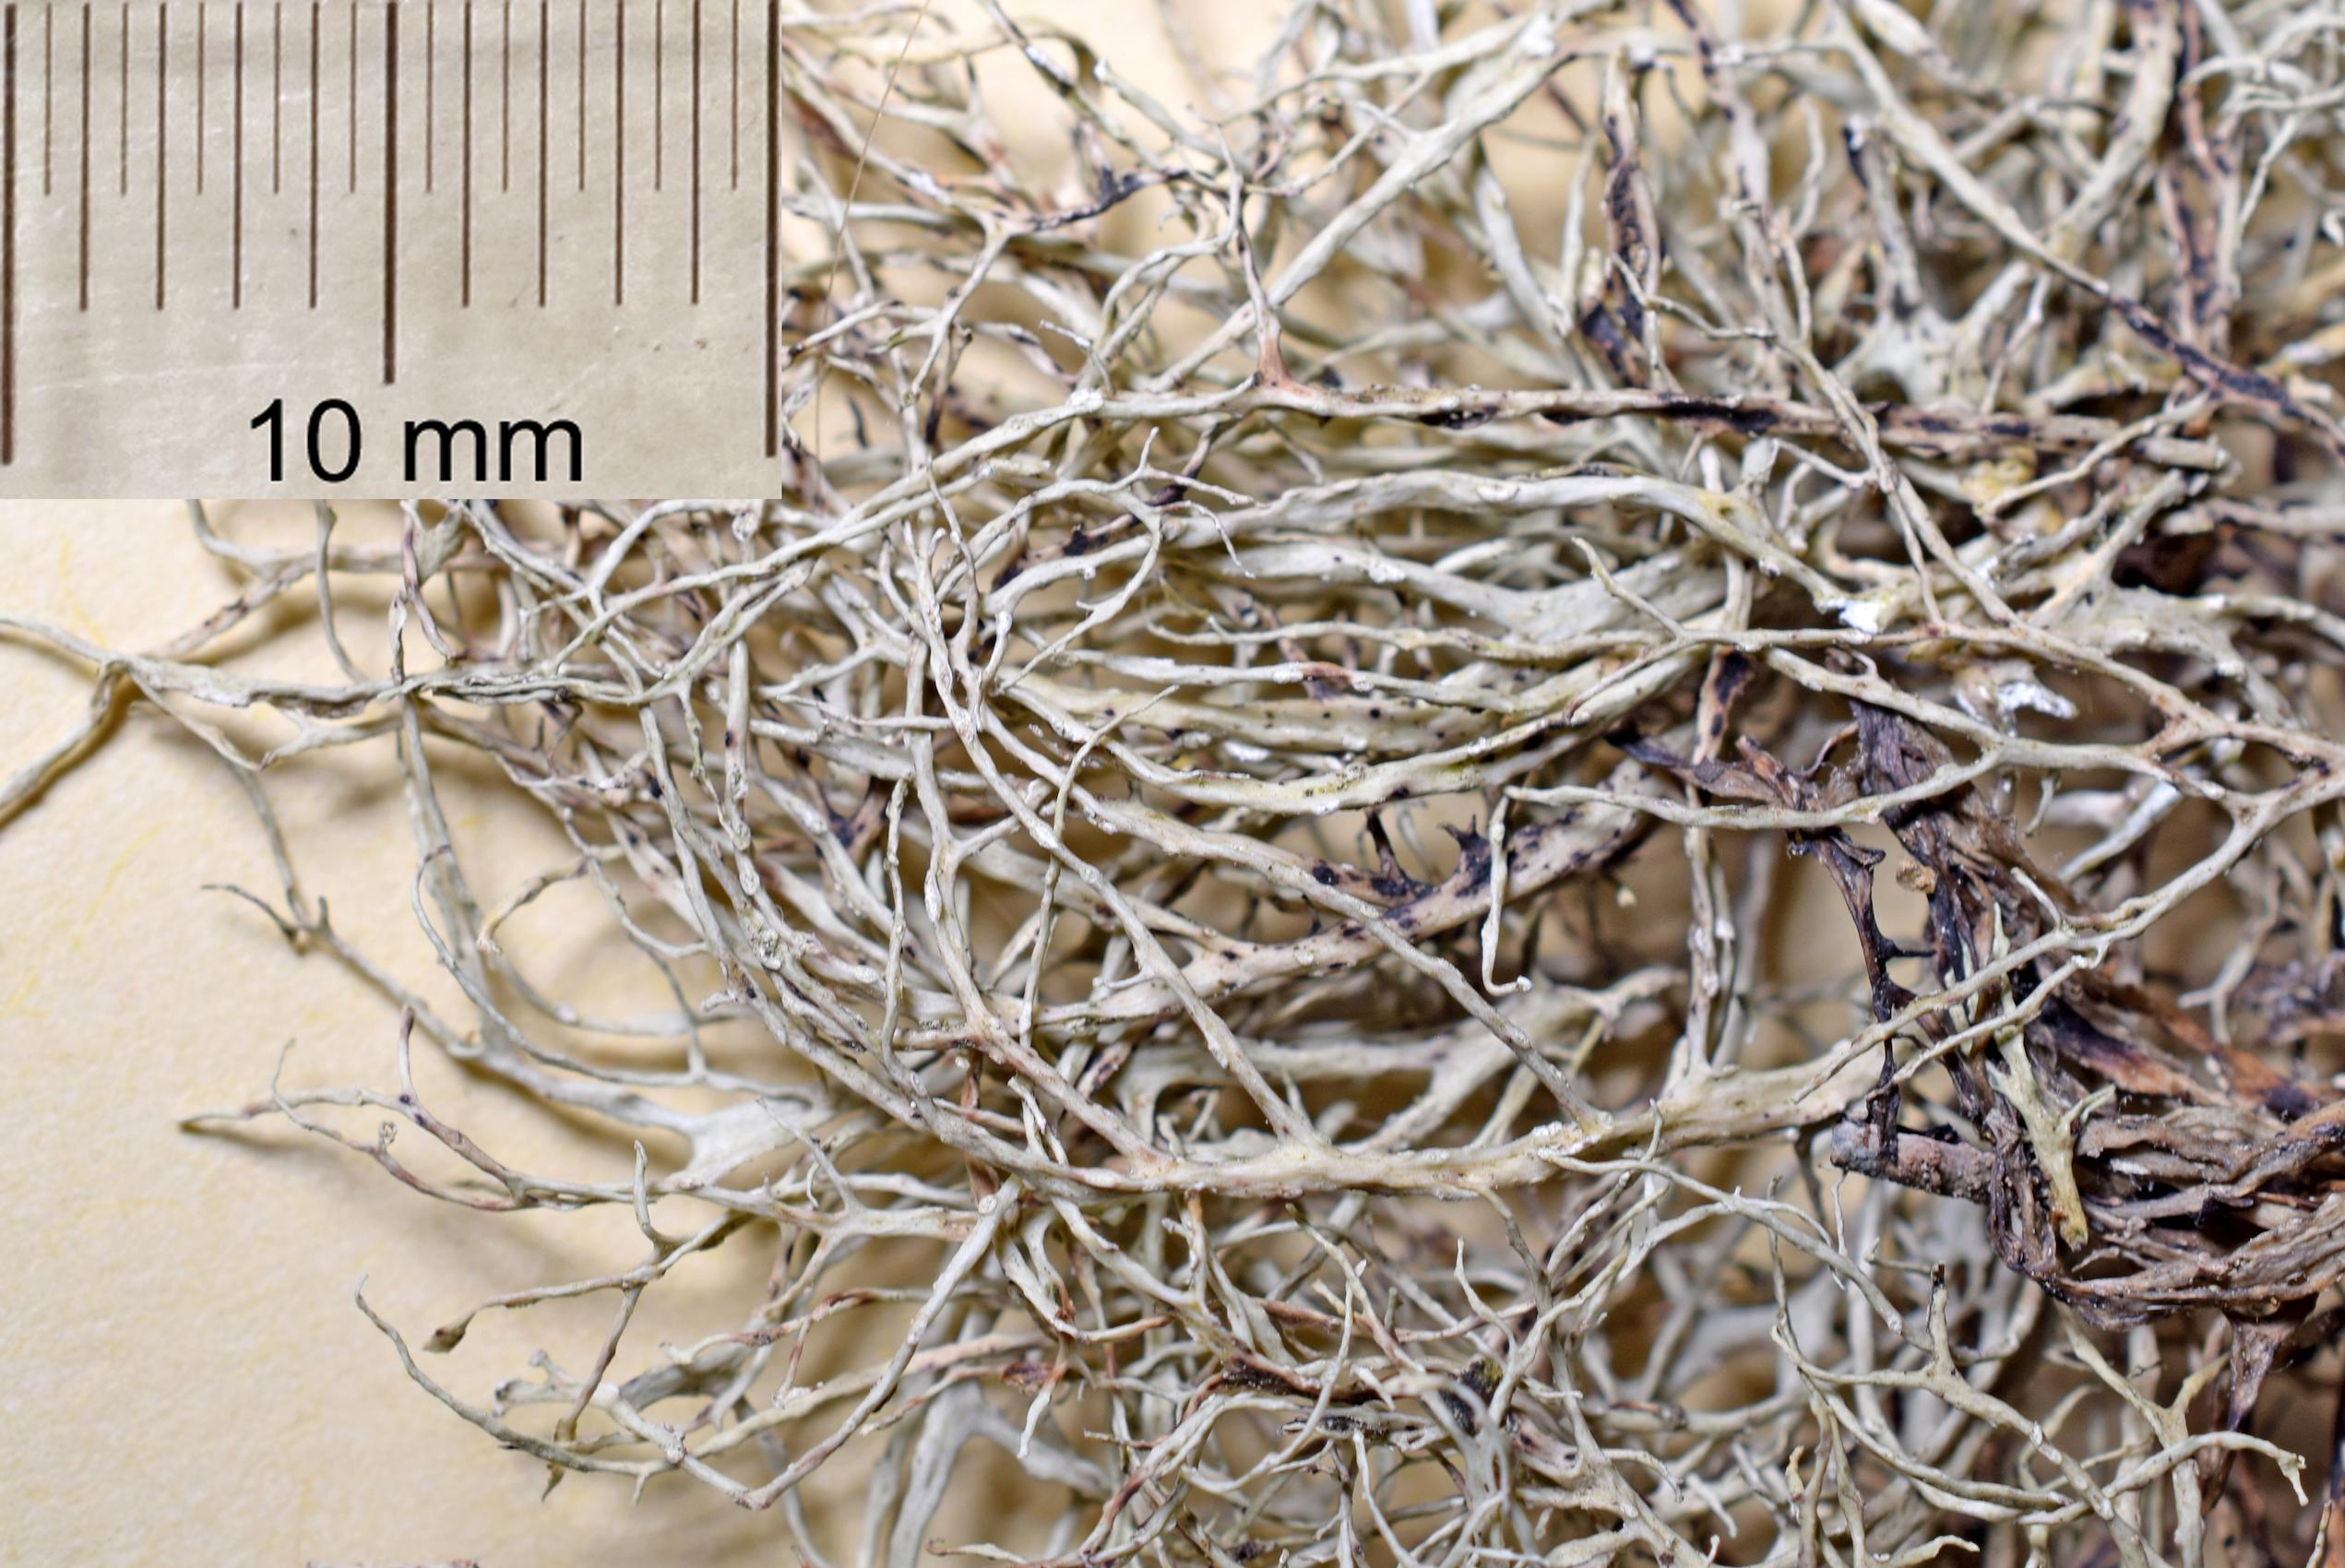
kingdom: Fungi
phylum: Ascomycota
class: Lecanoromycetes
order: Lecanorales
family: Ramalinaceae
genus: Ramalina
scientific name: Ramalina
